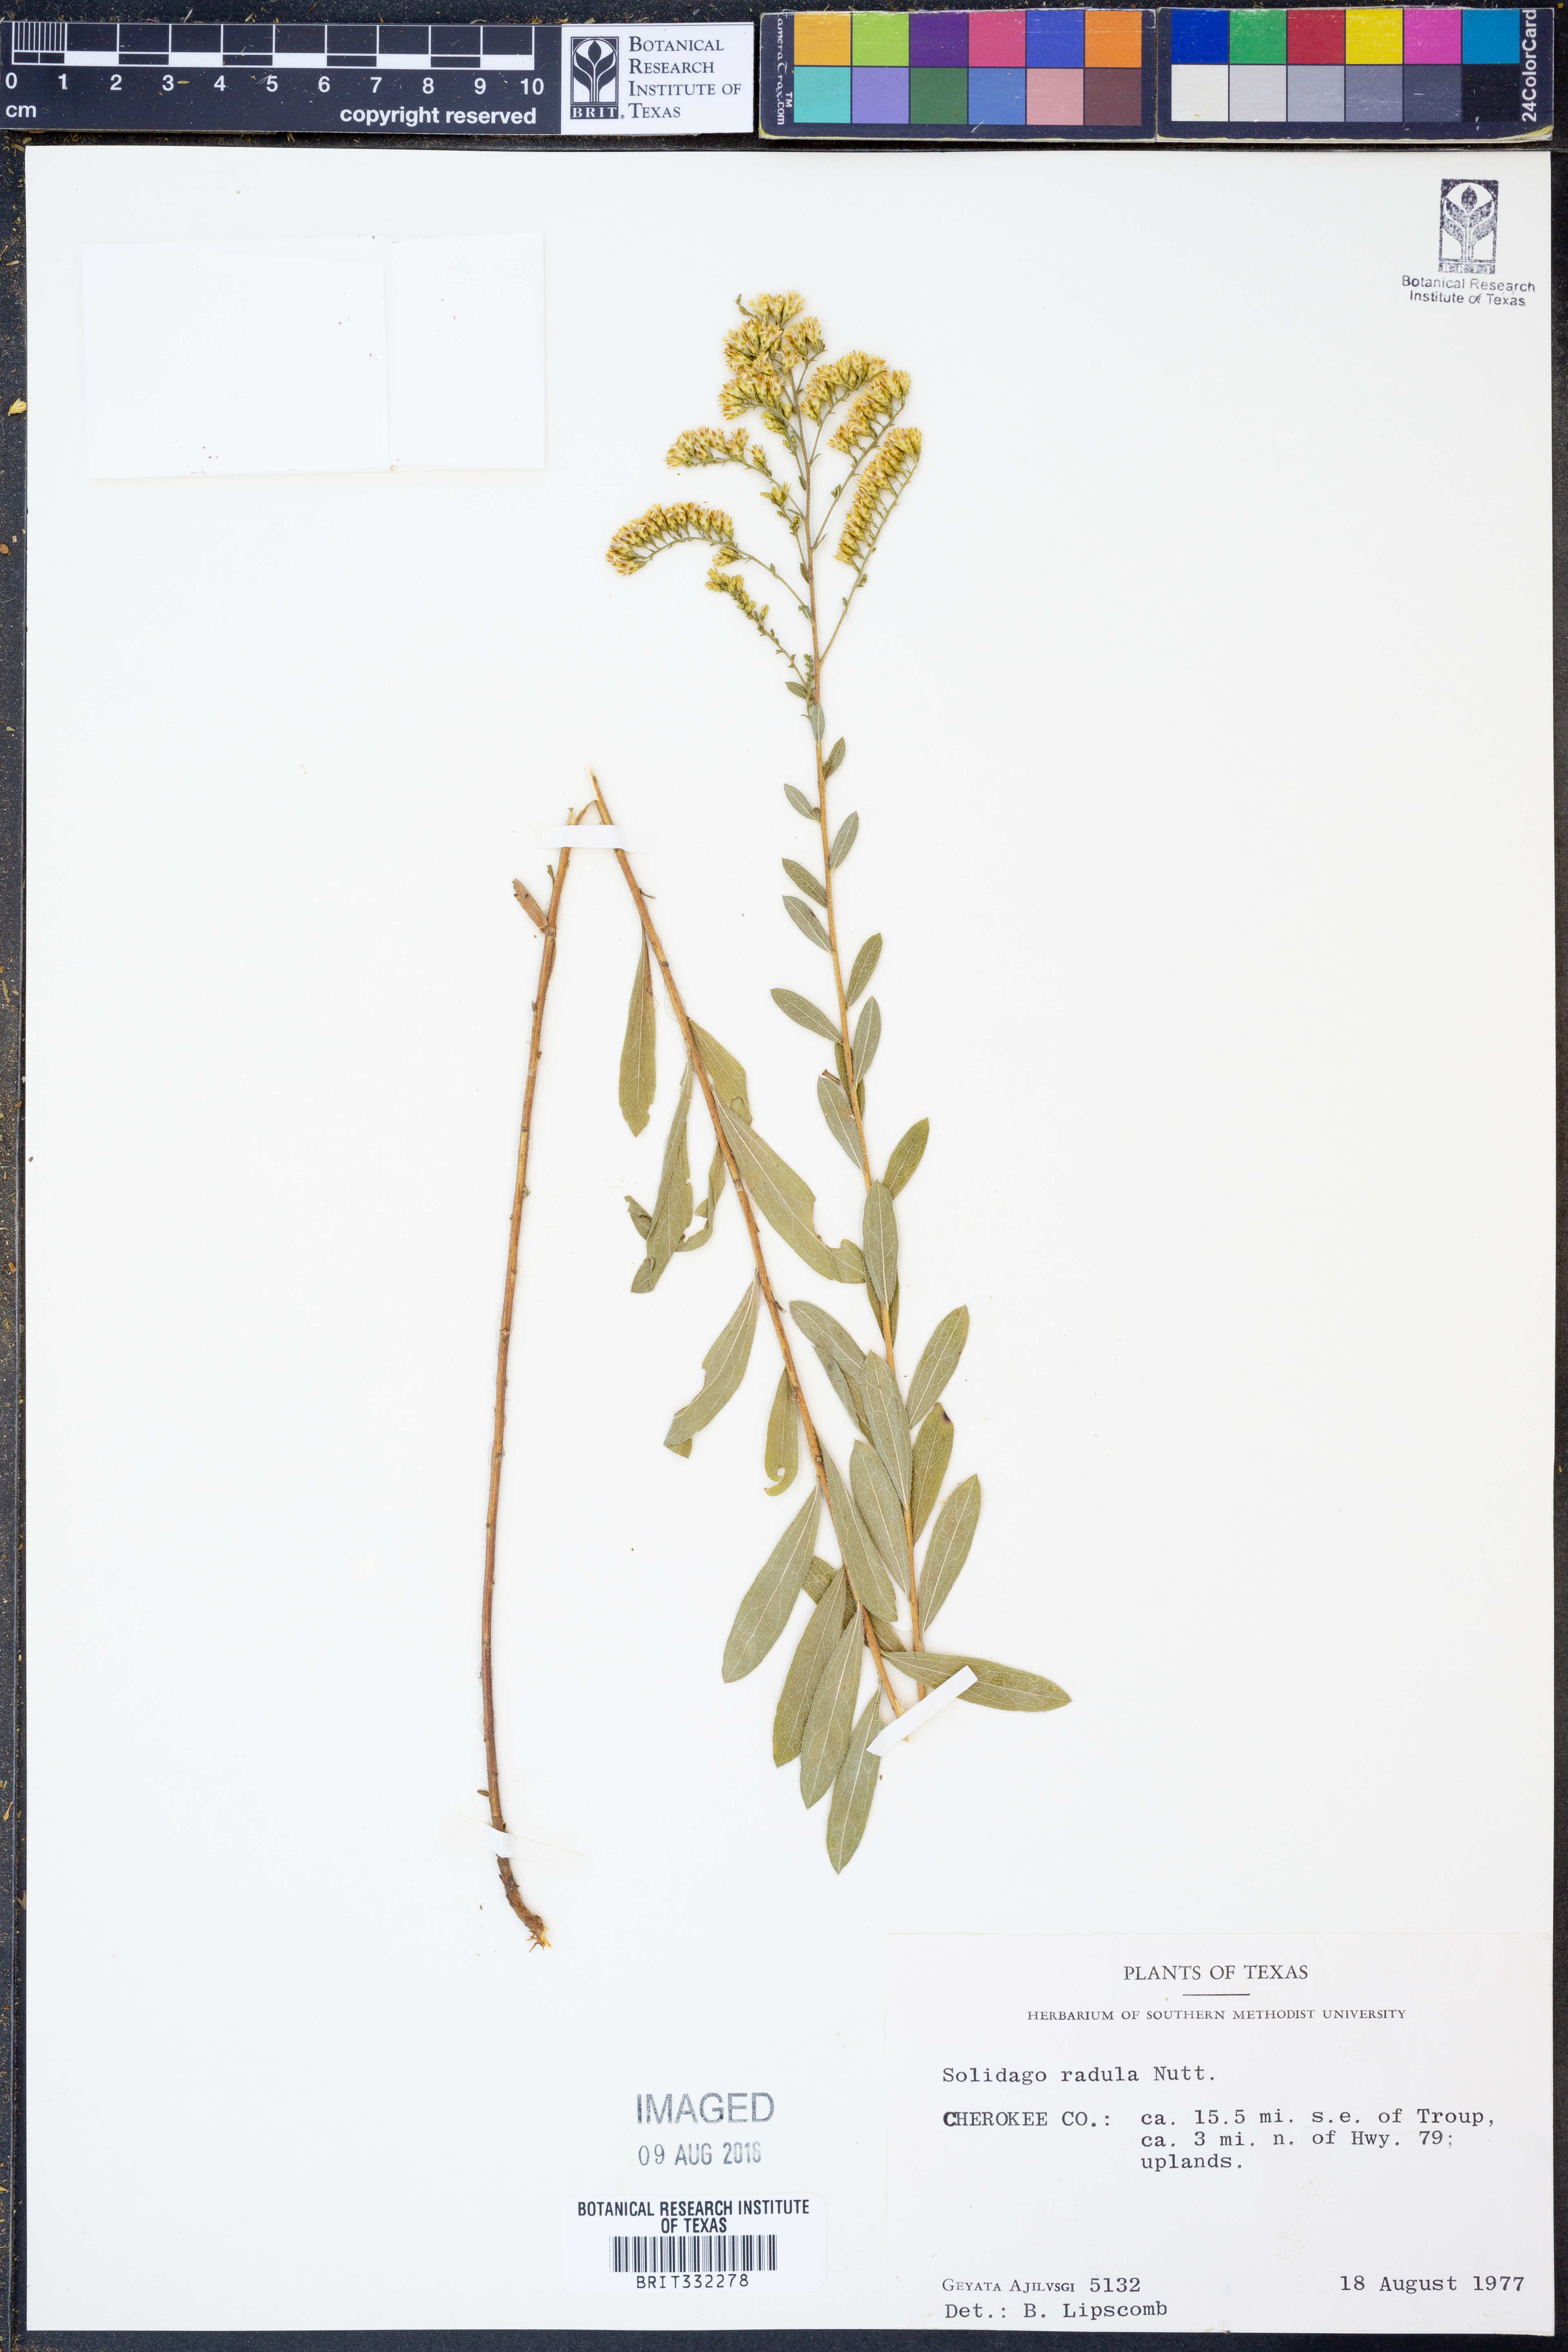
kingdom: Plantae
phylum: Tracheophyta
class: Magnoliopsida
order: Asterales
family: Asteraceae
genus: Solidago
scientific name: Solidago radula
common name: Western rough goldenrod
